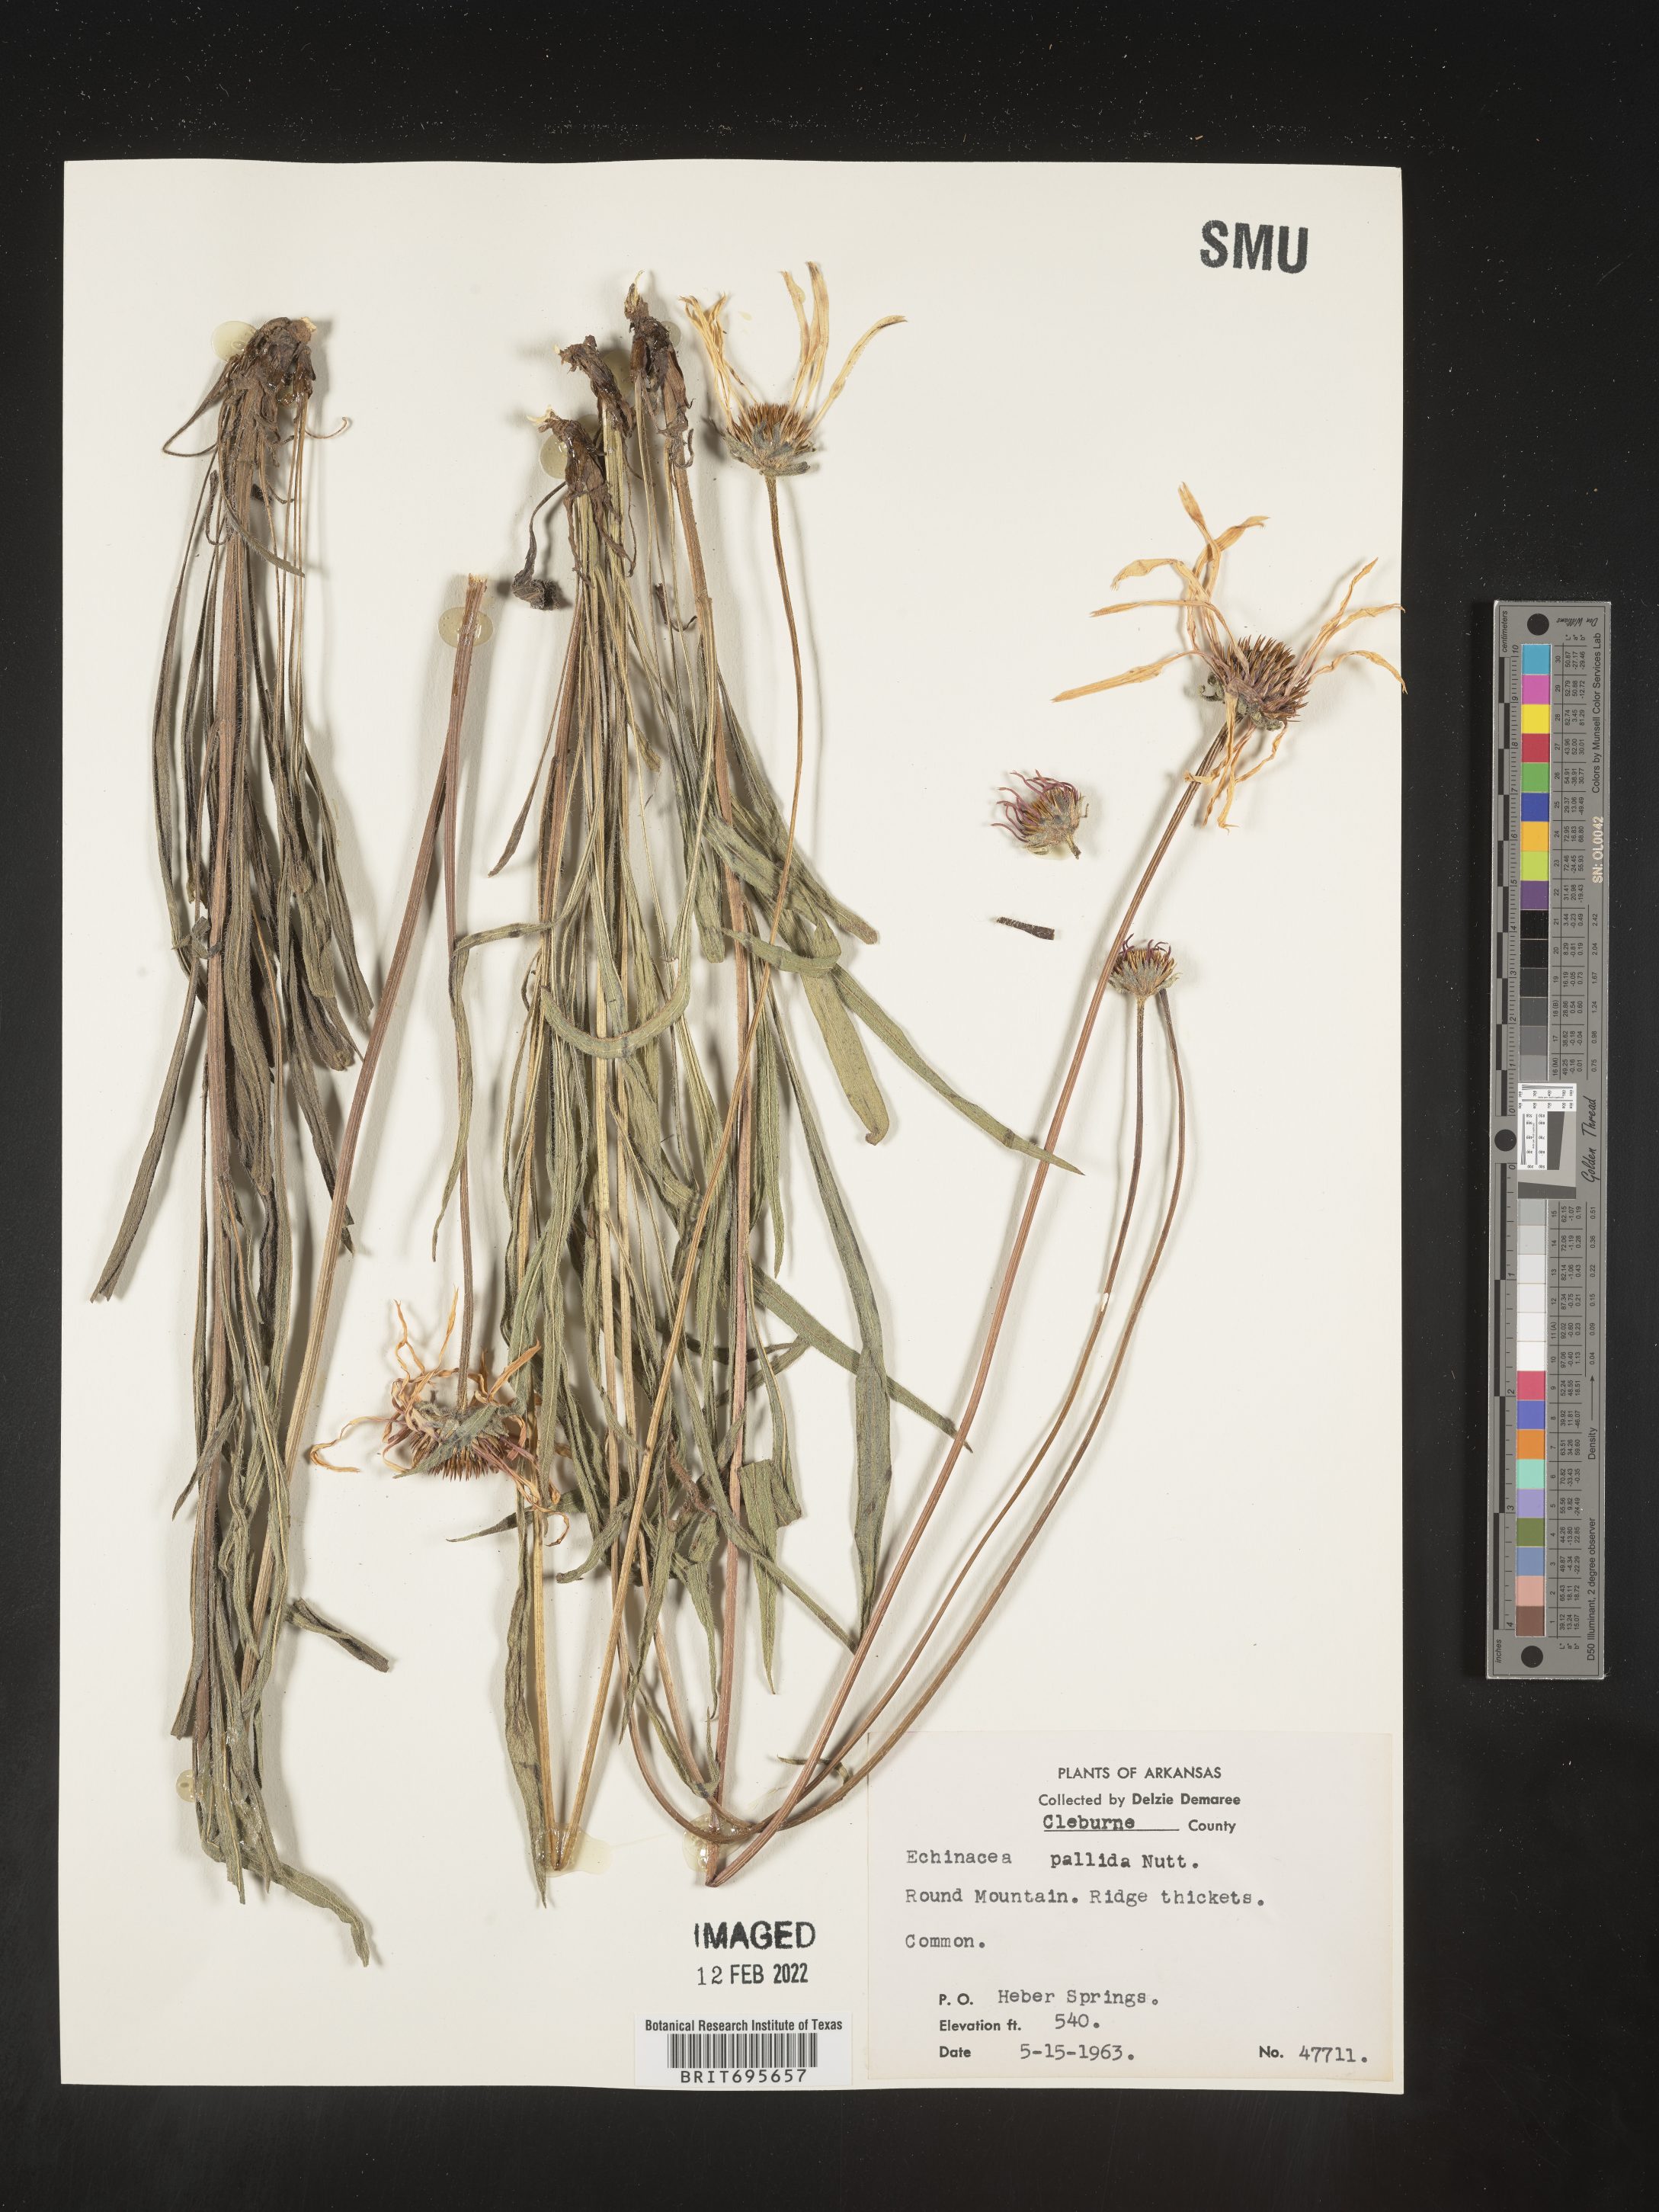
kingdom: Plantae
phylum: Tracheophyta
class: Magnoliopsida
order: Asterales
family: Asteraceae
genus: Echinacea
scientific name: Echinacea pallida
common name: Pale echinacea
